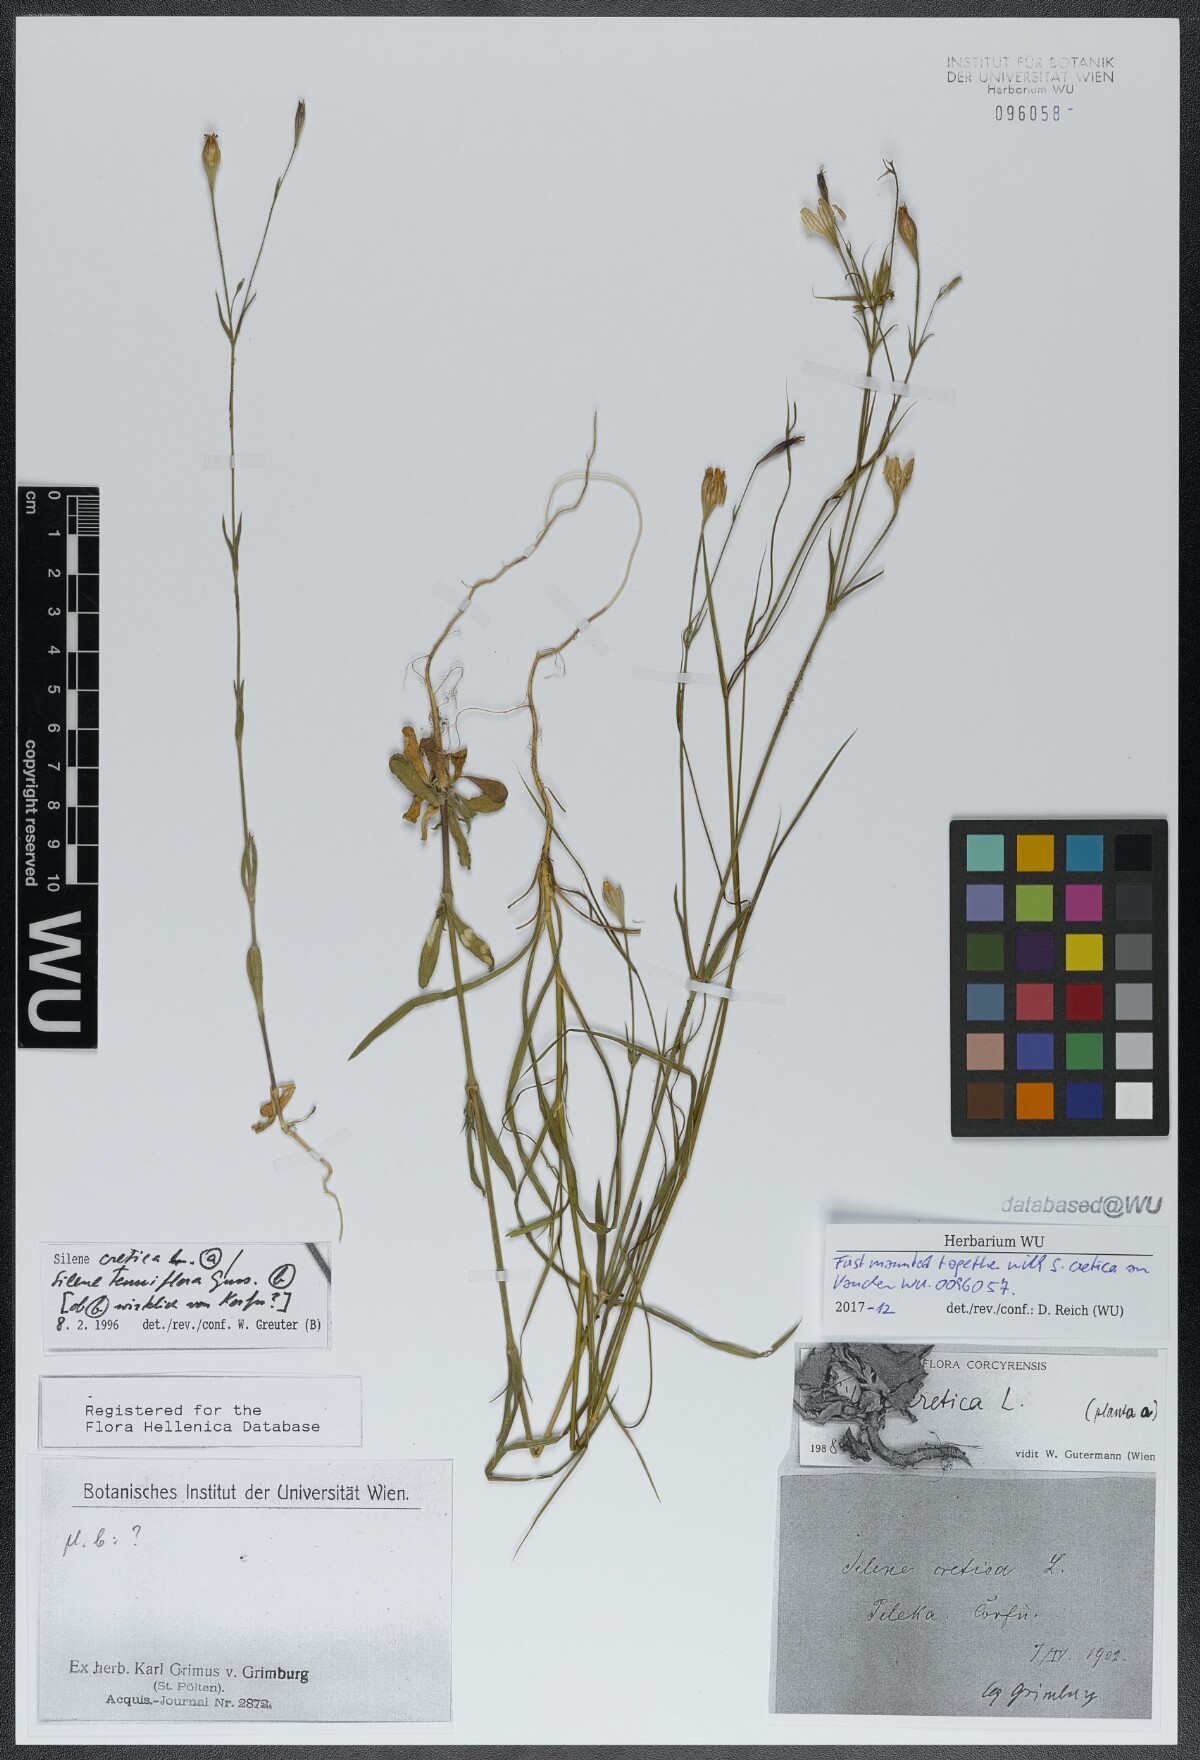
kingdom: Plantae
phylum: Tracheophyta
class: Magnoliopsida
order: Caryophyllales
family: Caryophyllaceae
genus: Silene
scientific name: Silene tenuiflora
